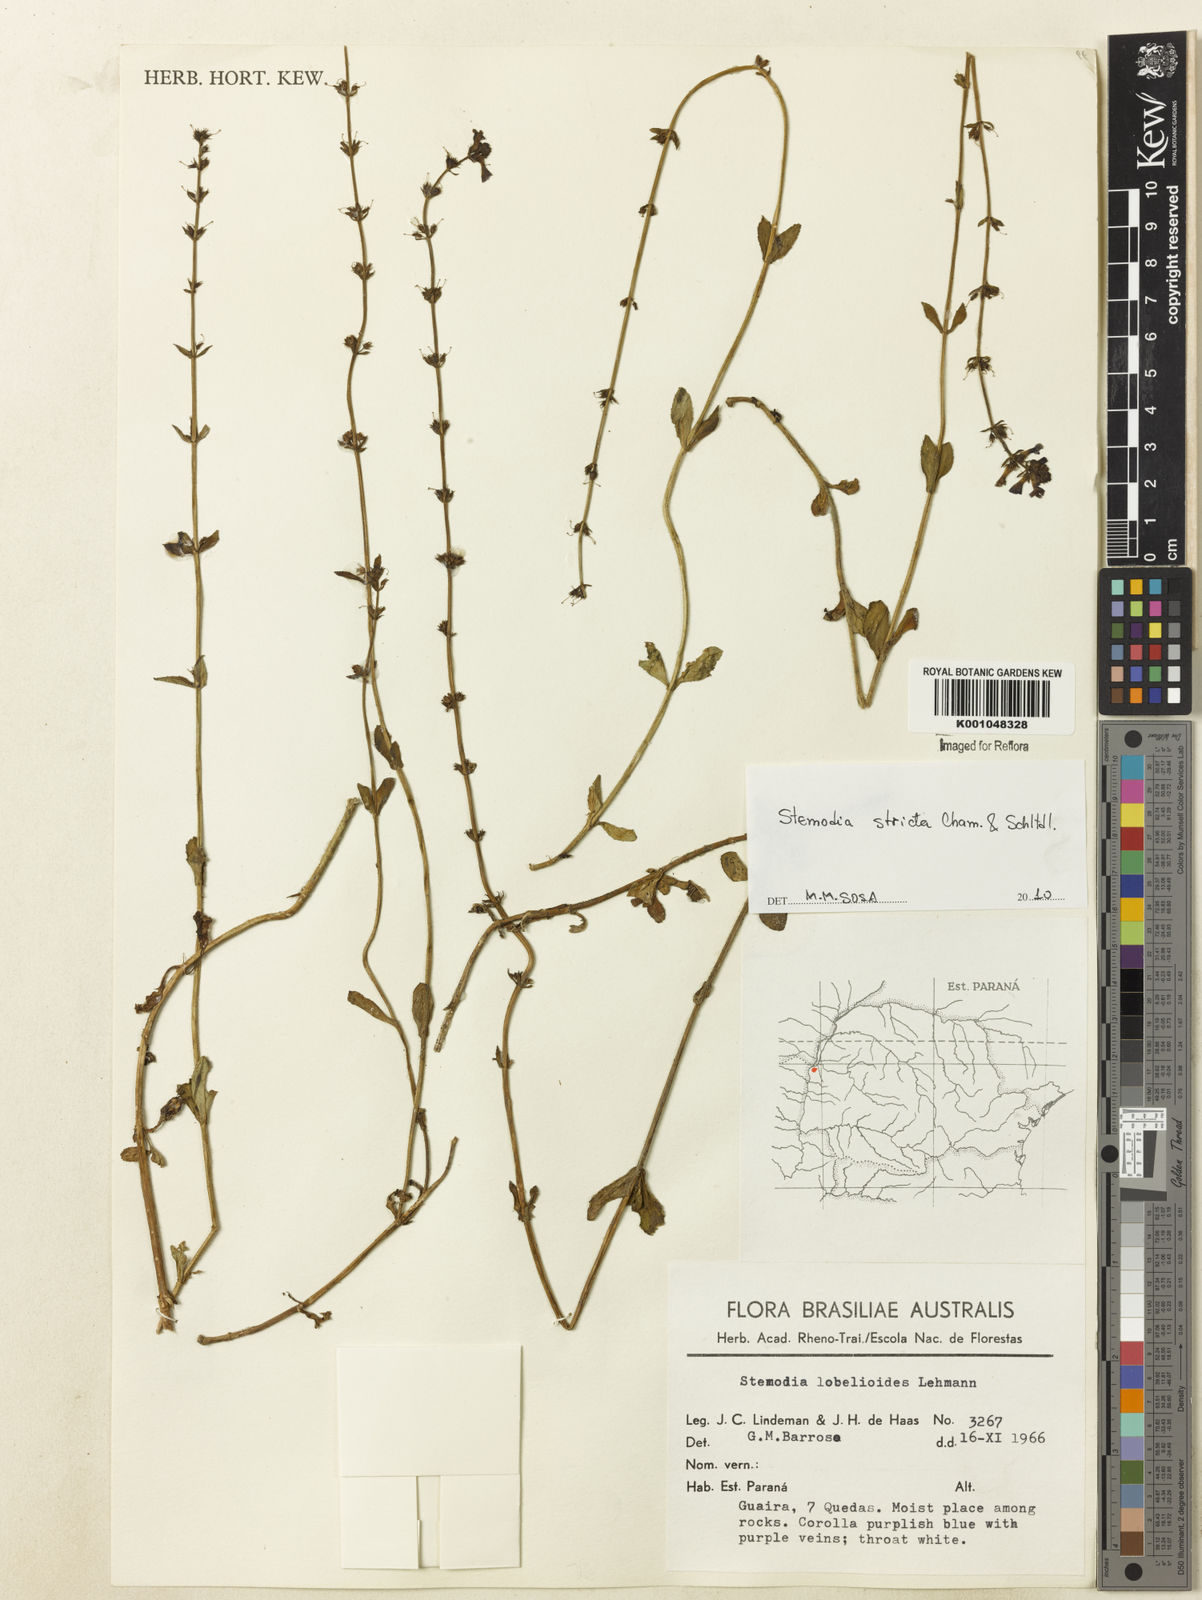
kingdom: Plantae
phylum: Tracheophyta
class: Magnoliopsida
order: Lamiales
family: Plantaginaceae
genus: Stemodia
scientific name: Stemodia stricta
